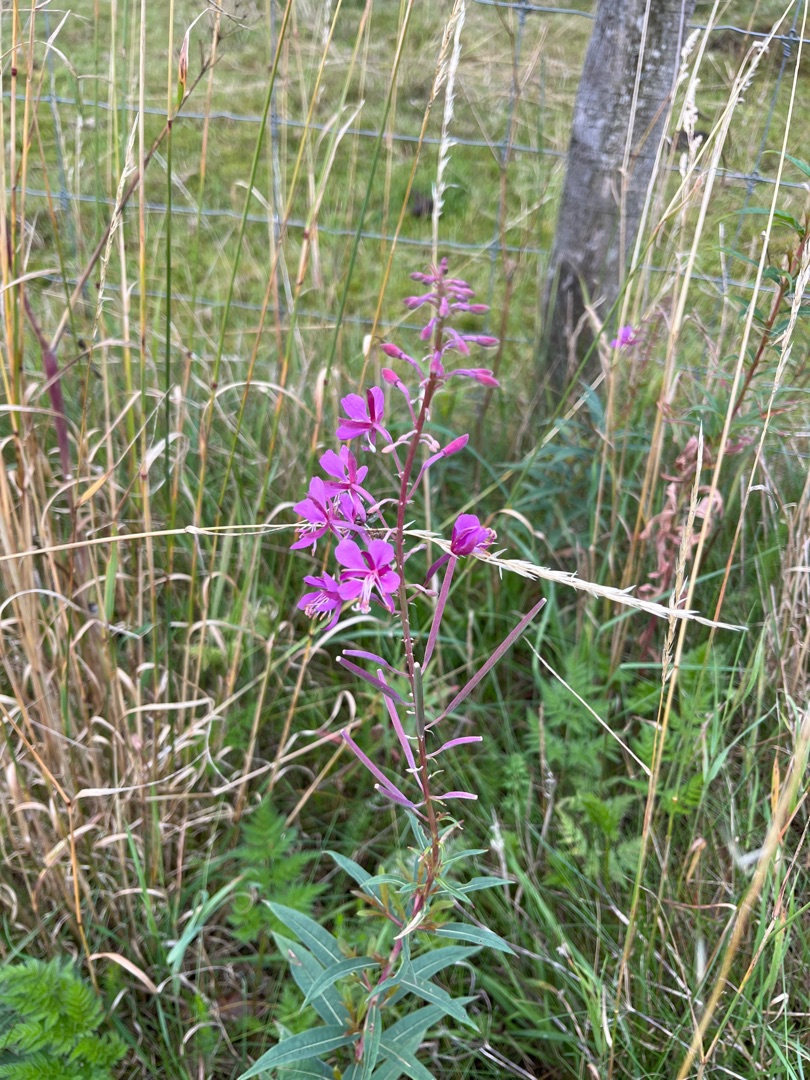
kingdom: Plantae
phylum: Tracheophyta
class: Magnoliopsida
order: Myrtales
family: Onagraceae
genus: Chamaenerion
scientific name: Chamaenerion angustifolium
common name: Gederams
